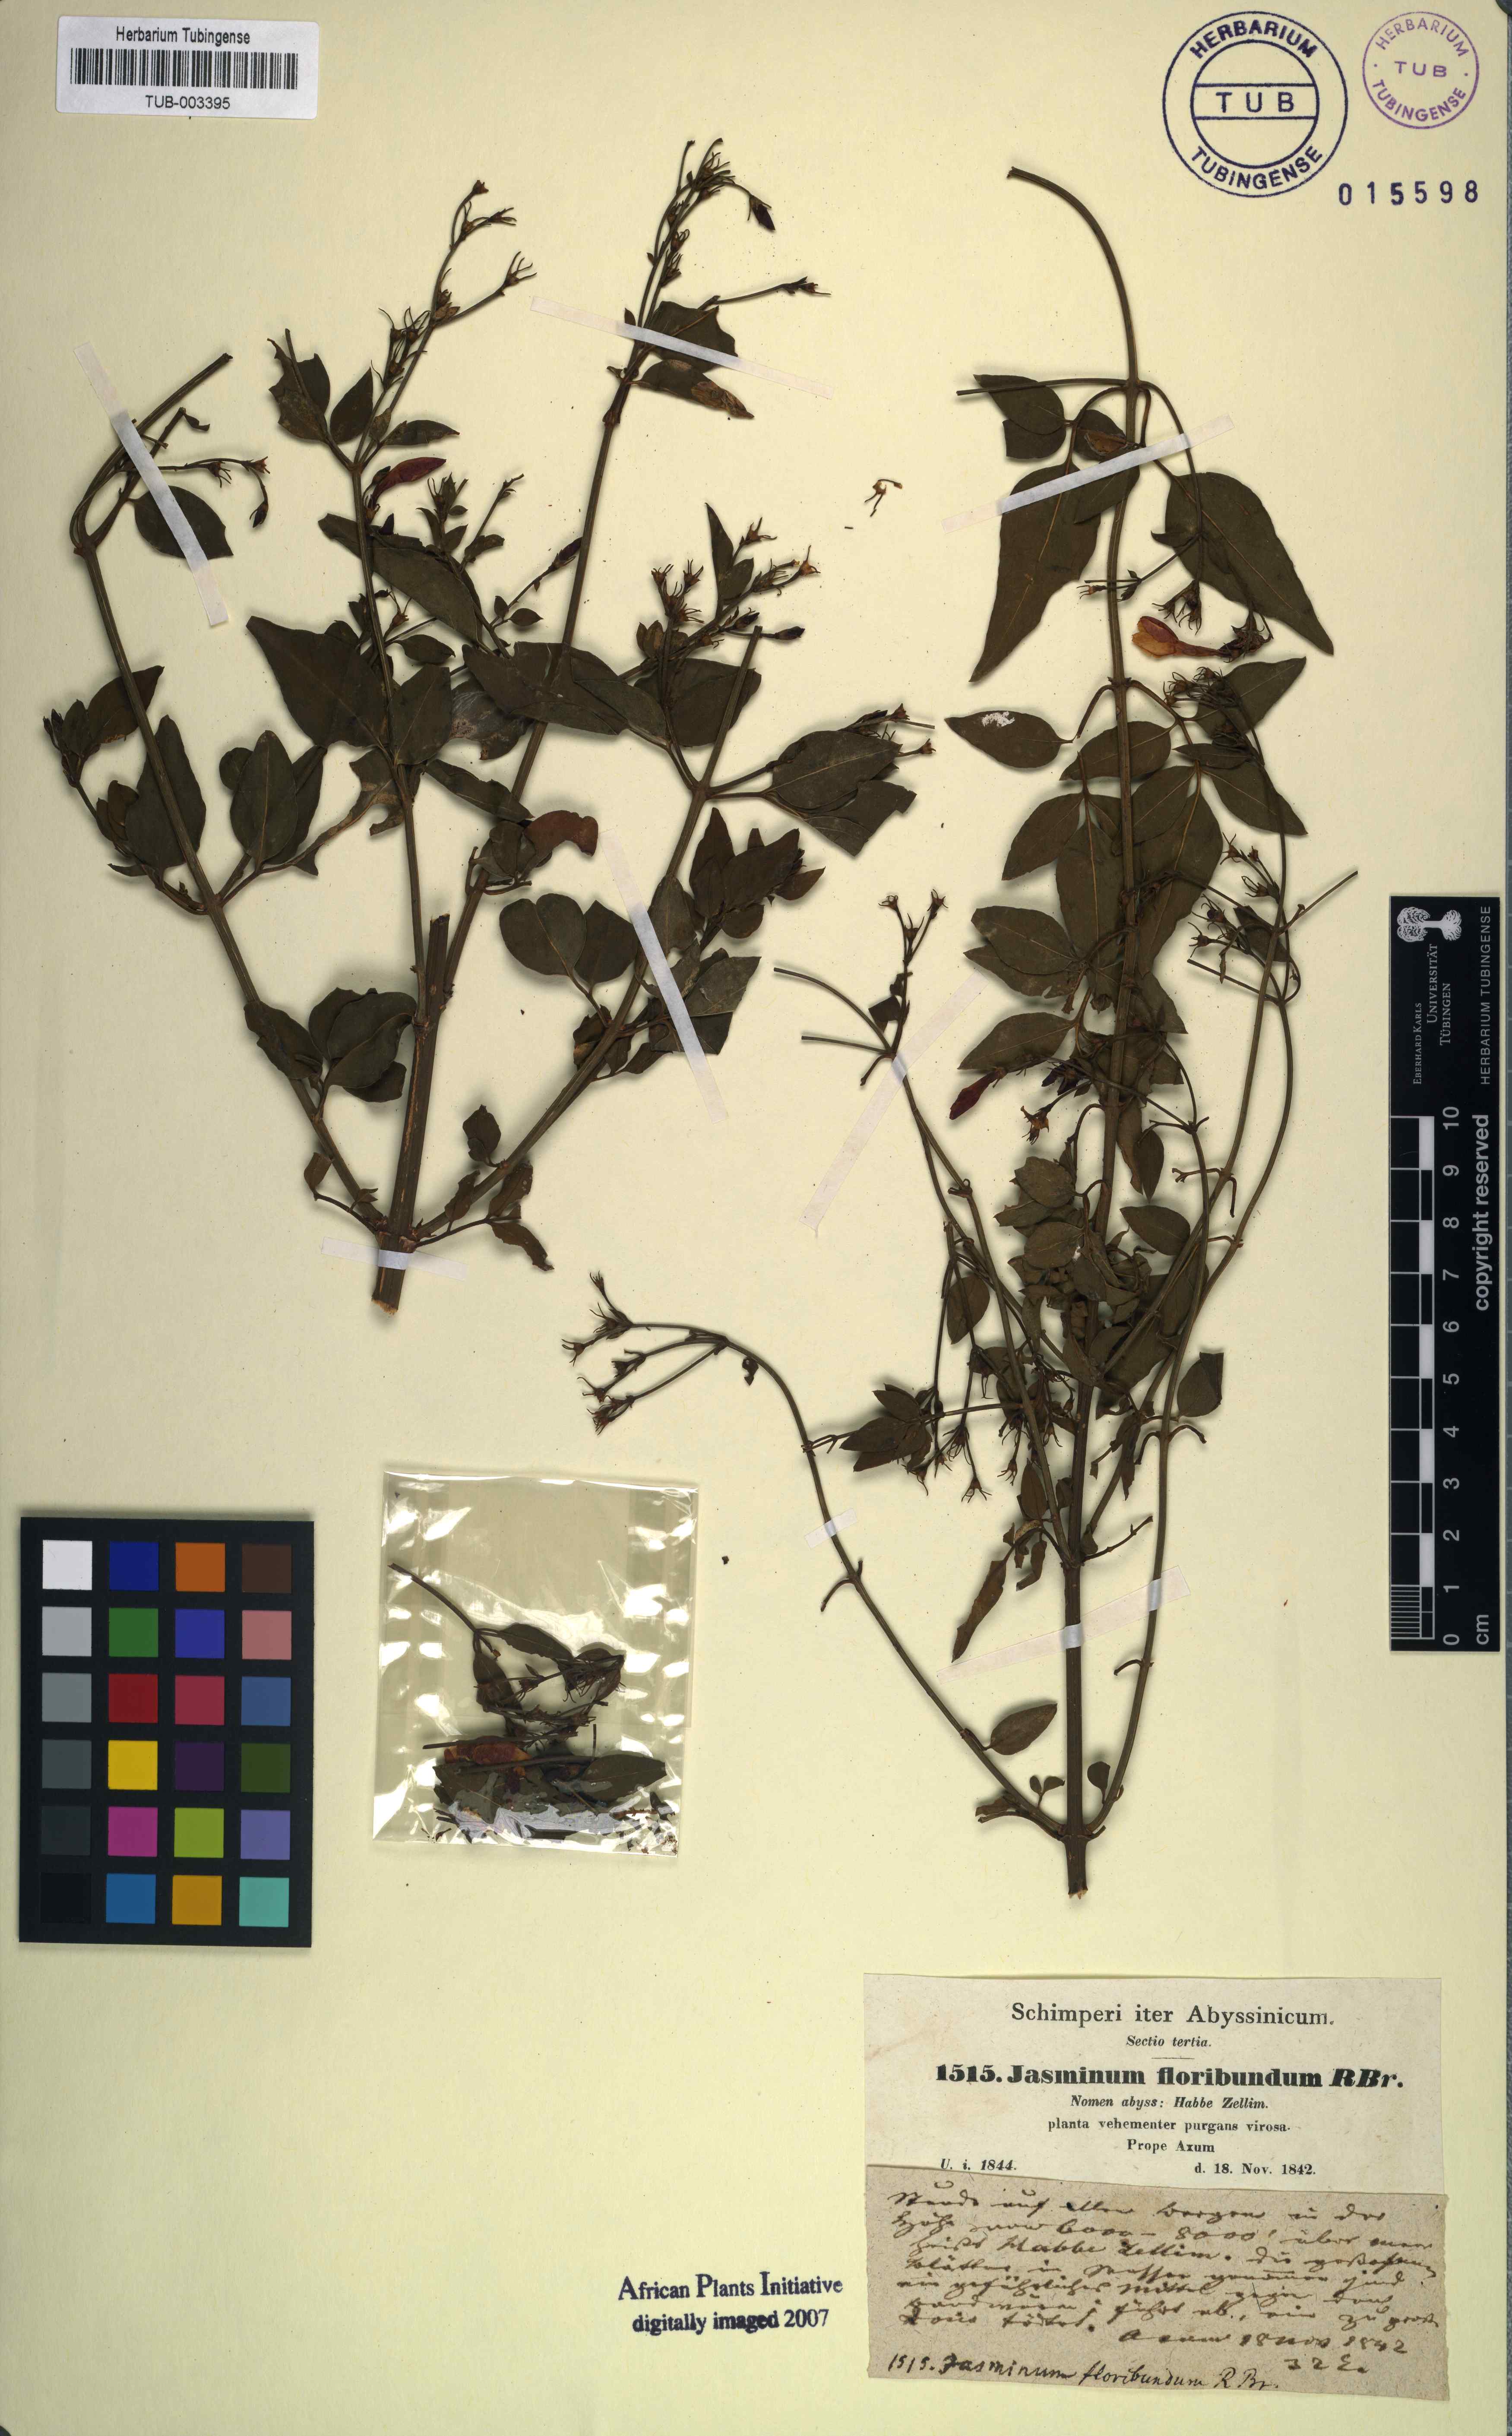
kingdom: Plantae
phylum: Tracheophyta
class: Magnoliopsida
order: Lamiales
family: Oleaceae
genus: Jasminum
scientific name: Jasminum grandiflorum
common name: Catalonian jasmine
